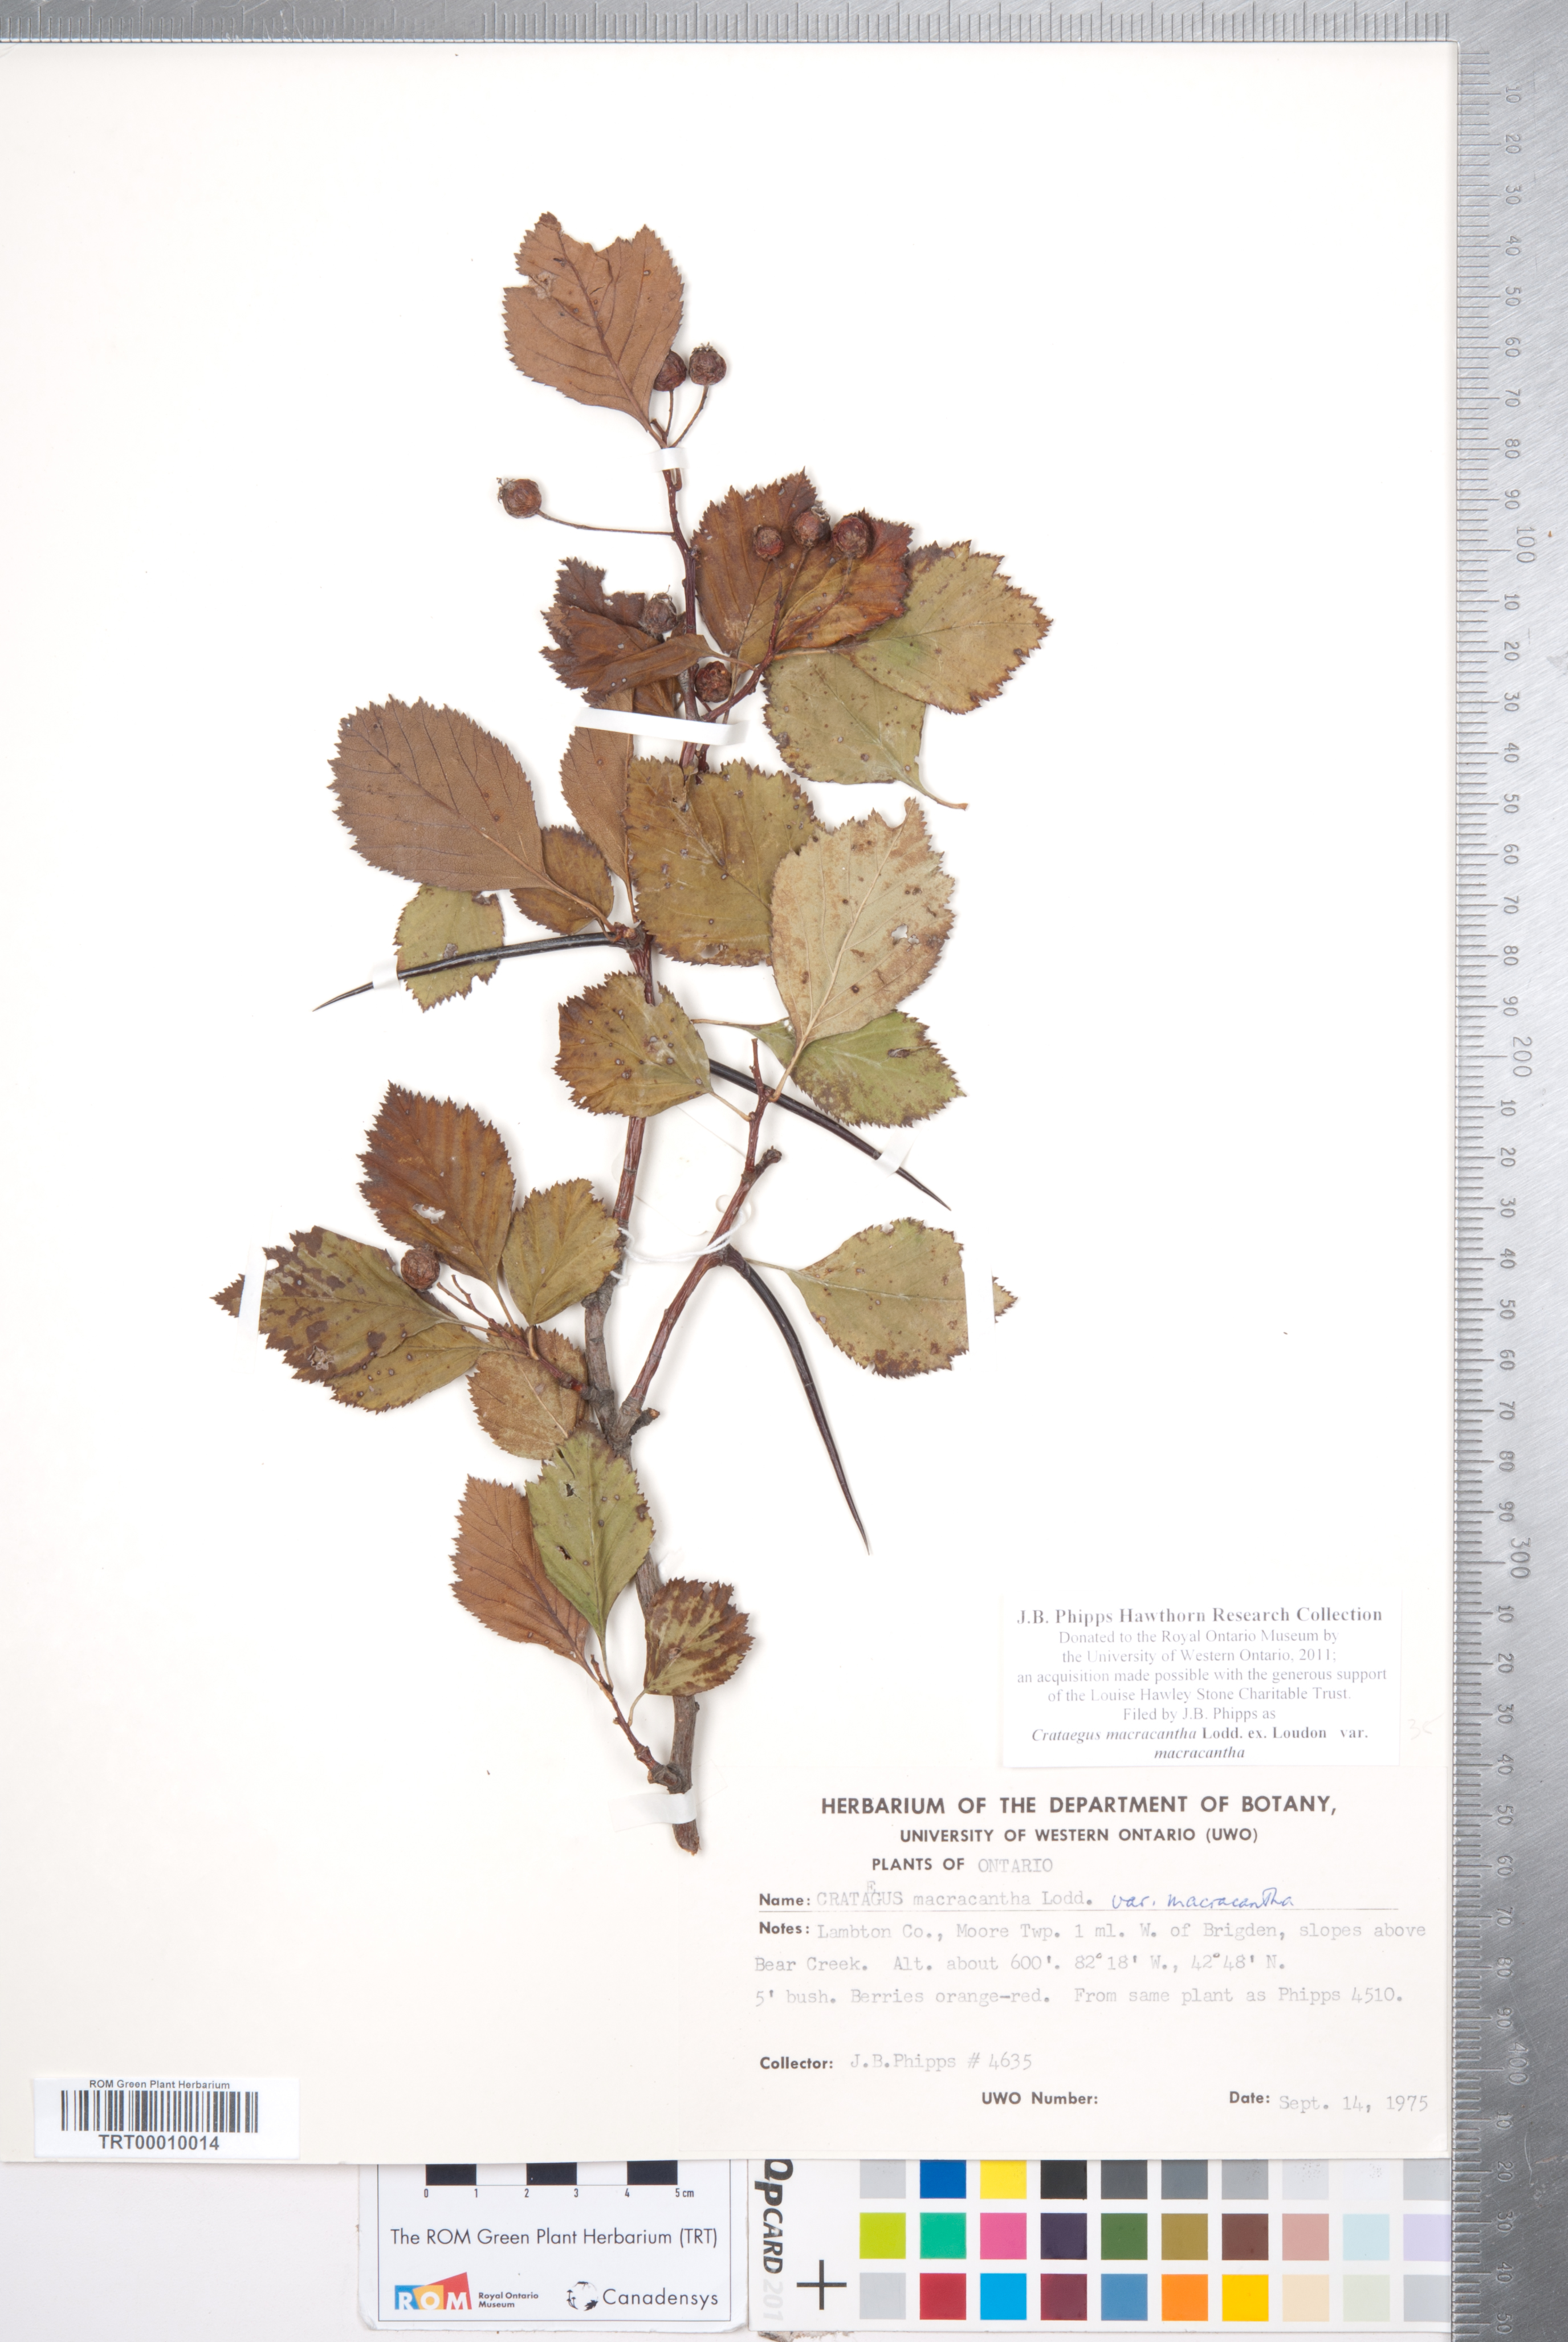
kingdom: Plantae
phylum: Tracheophyta
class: Magnoliopsida
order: Rosales
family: Rosaceae
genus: Crataegus
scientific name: Crataegus macracantha
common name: Large-thorn hawthorn
